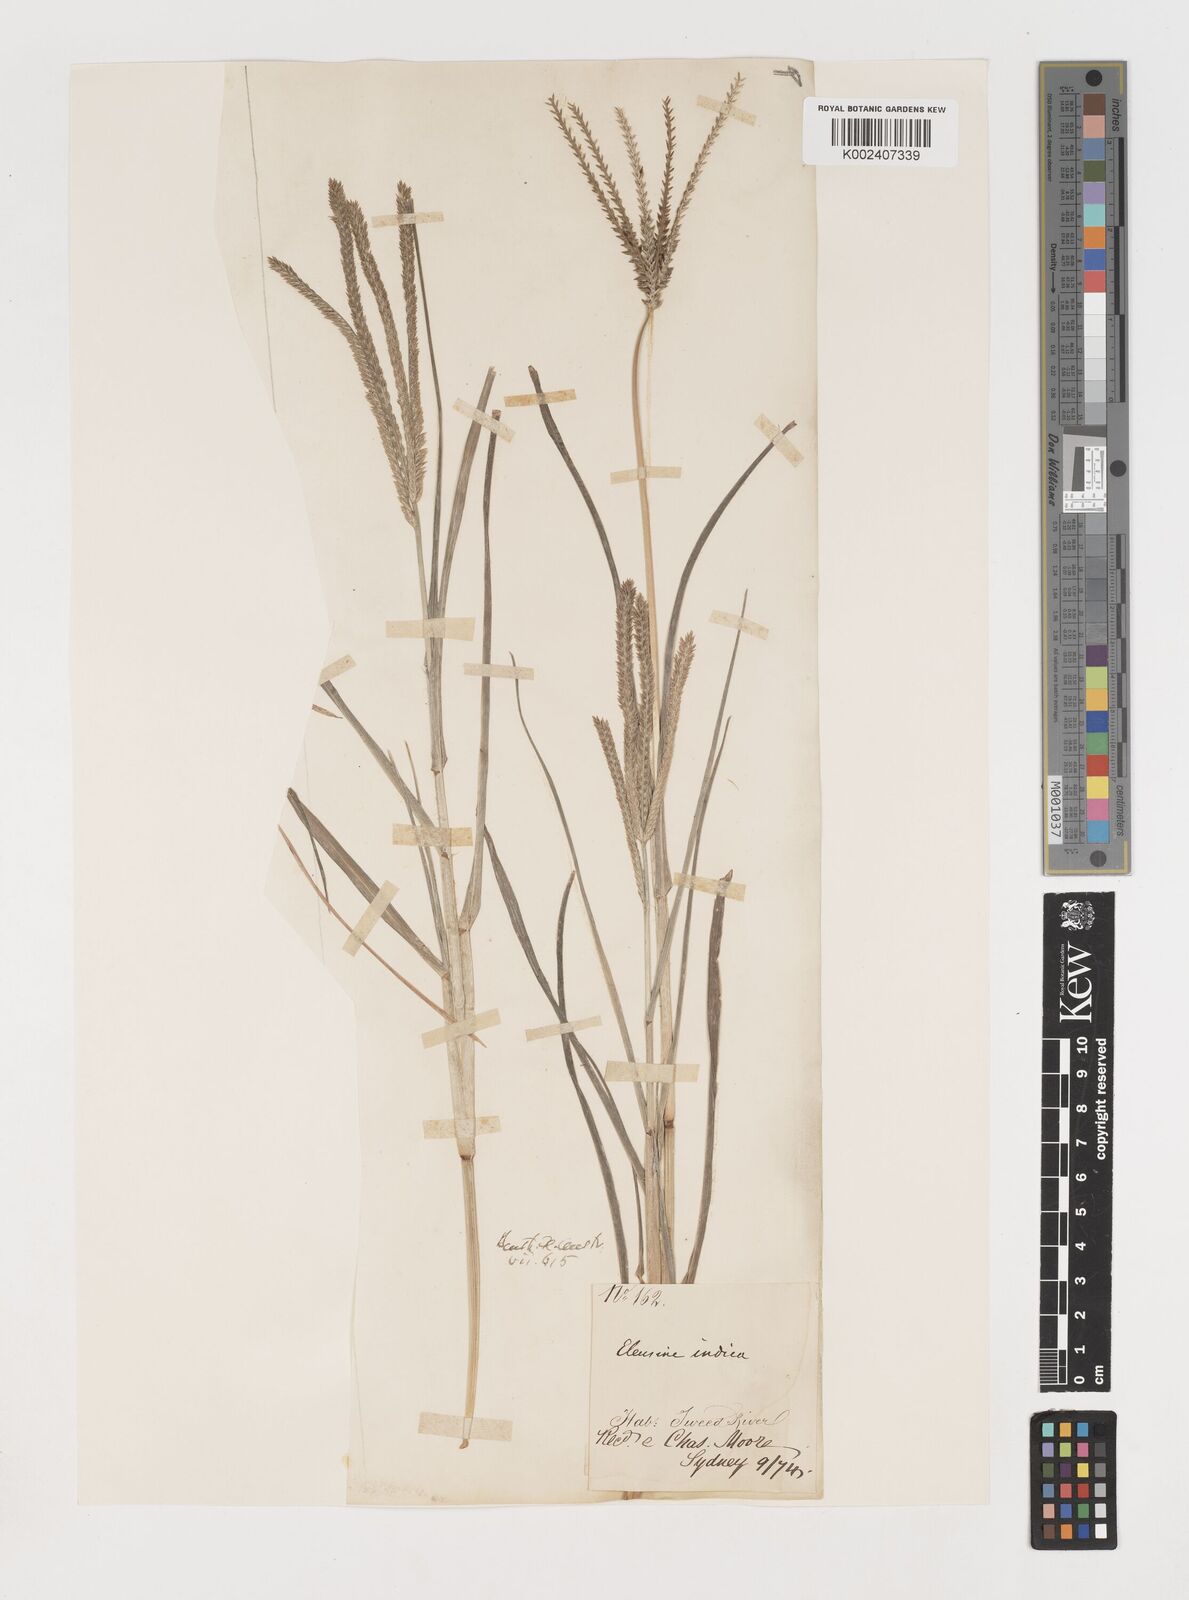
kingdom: Plantae
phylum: Tracheophyta
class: Liliopsida
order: Poales
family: Poaceae
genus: Eleusine
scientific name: Eleusine indica
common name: Yard-grass
